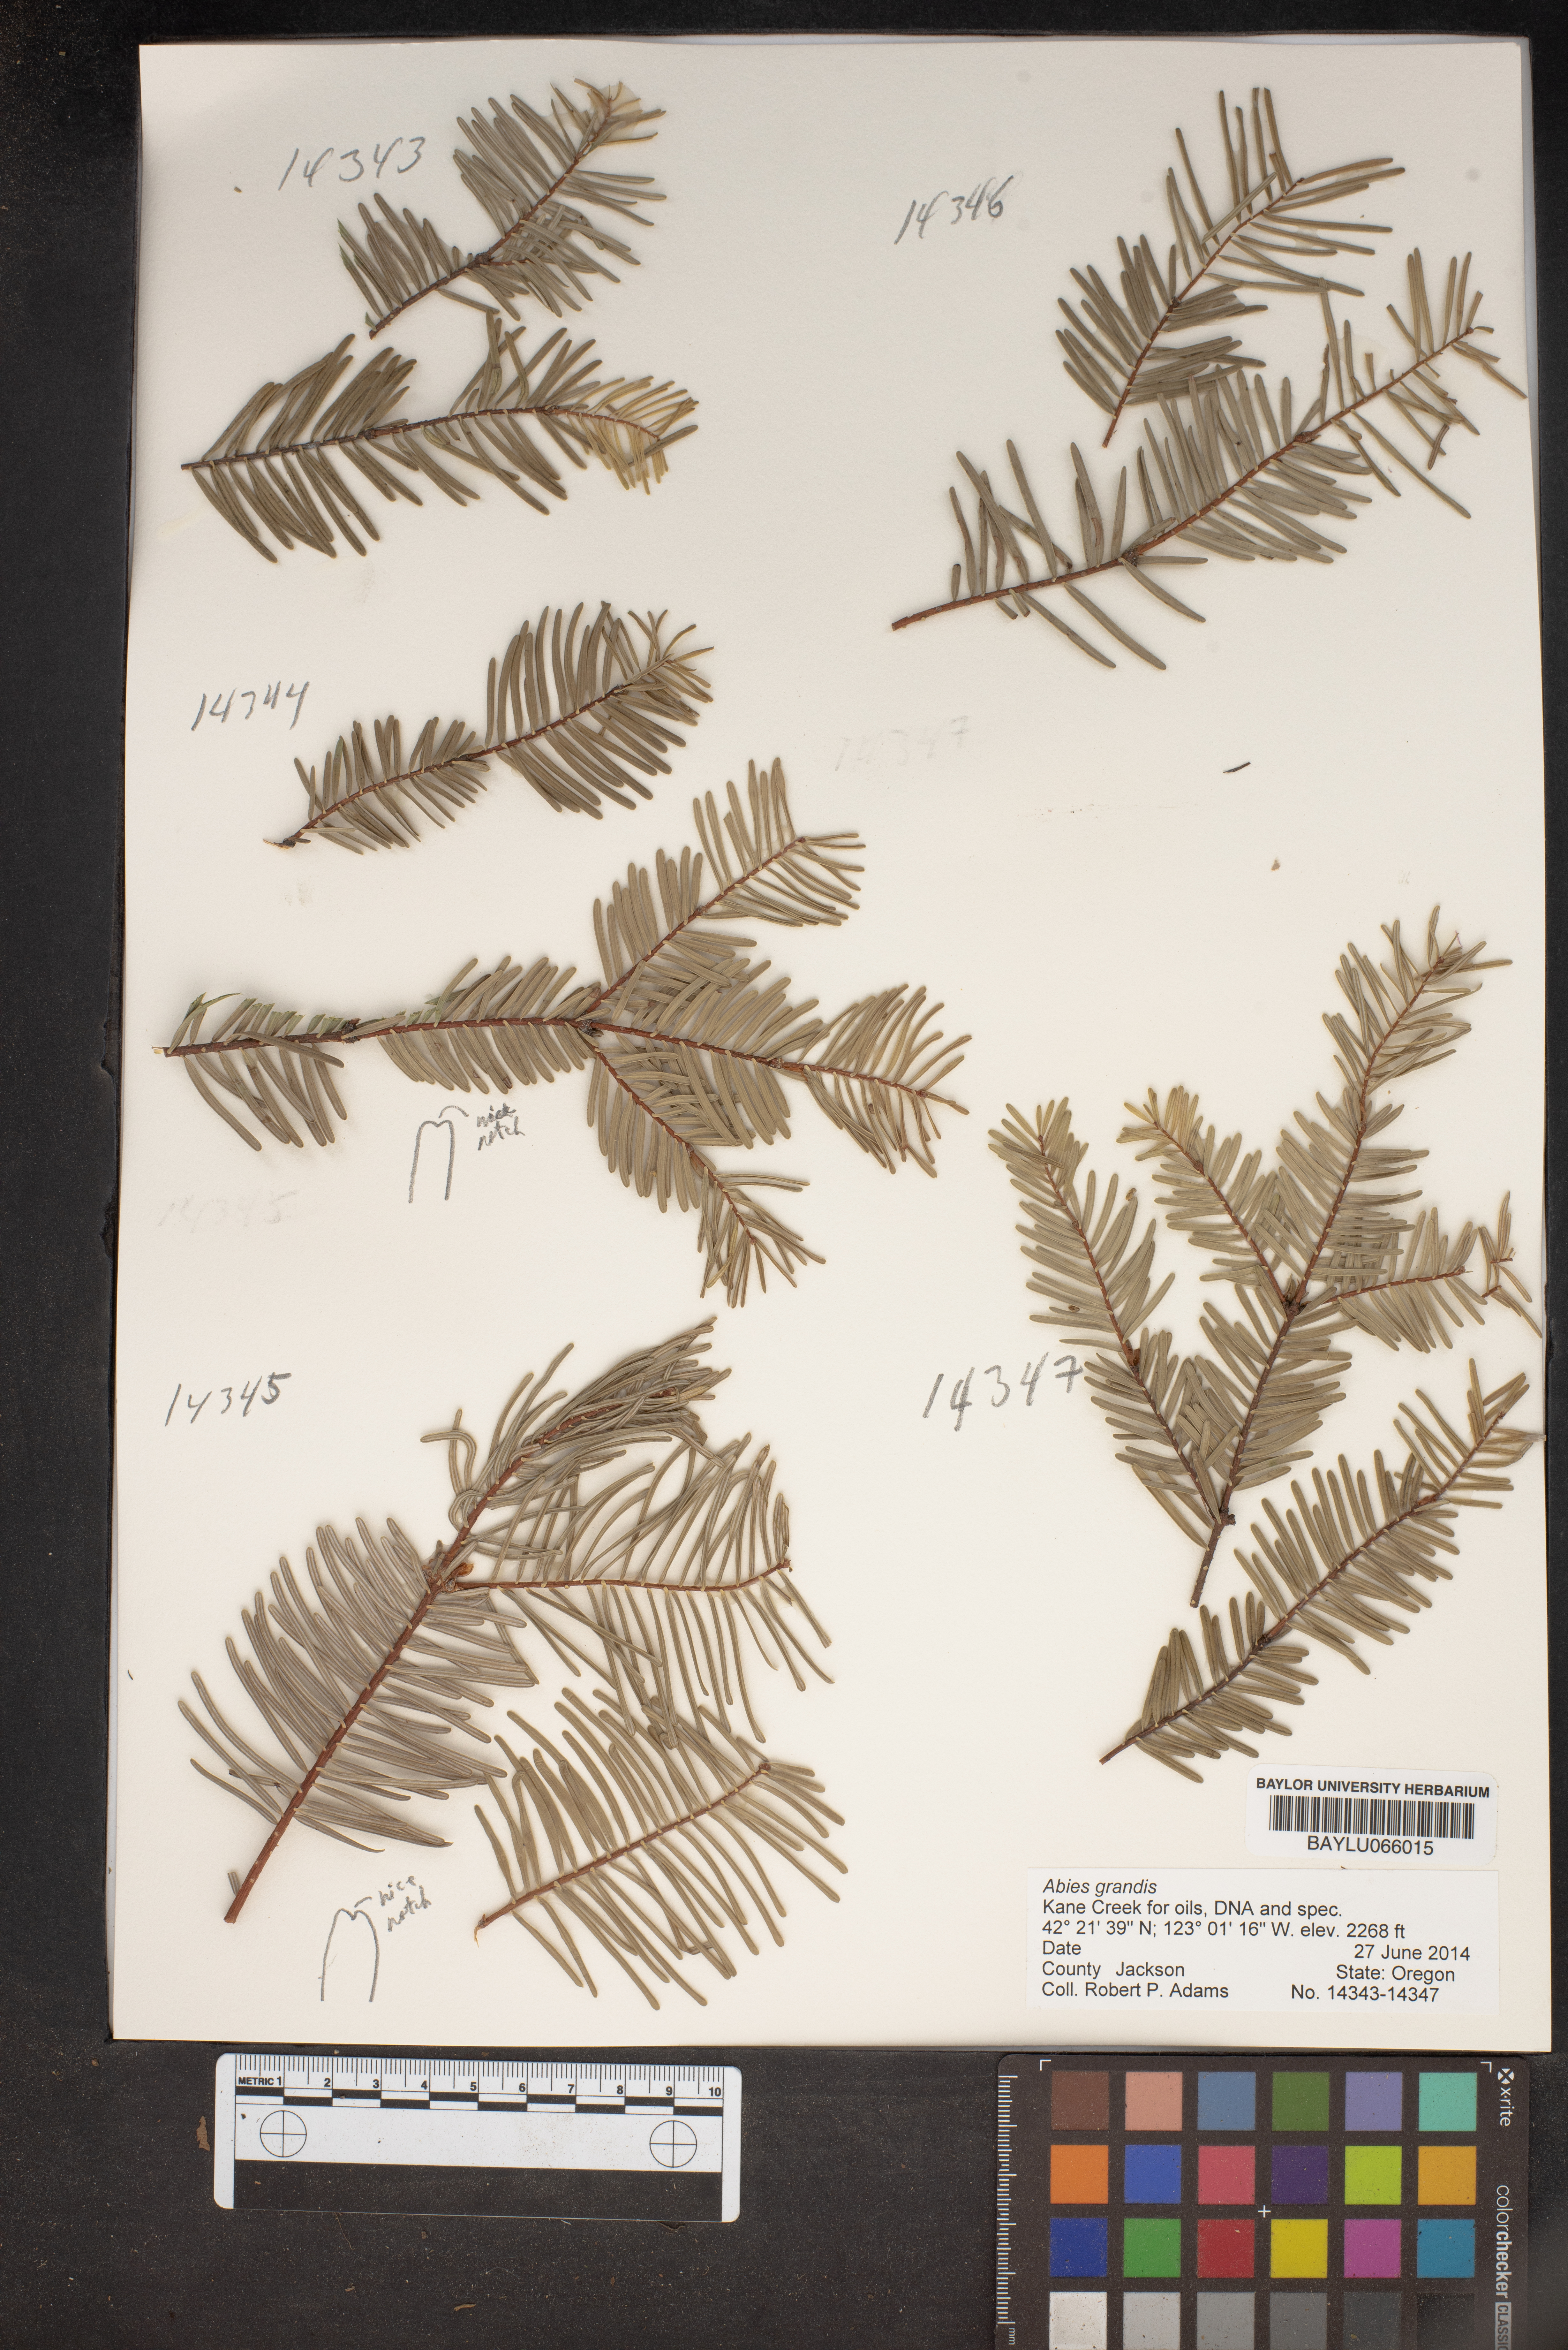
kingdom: Plantae
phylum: Tracheophyta
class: Pinopsida
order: Pinales
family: Pinaceae
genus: Abies
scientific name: Abies grandis
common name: Giant fir
